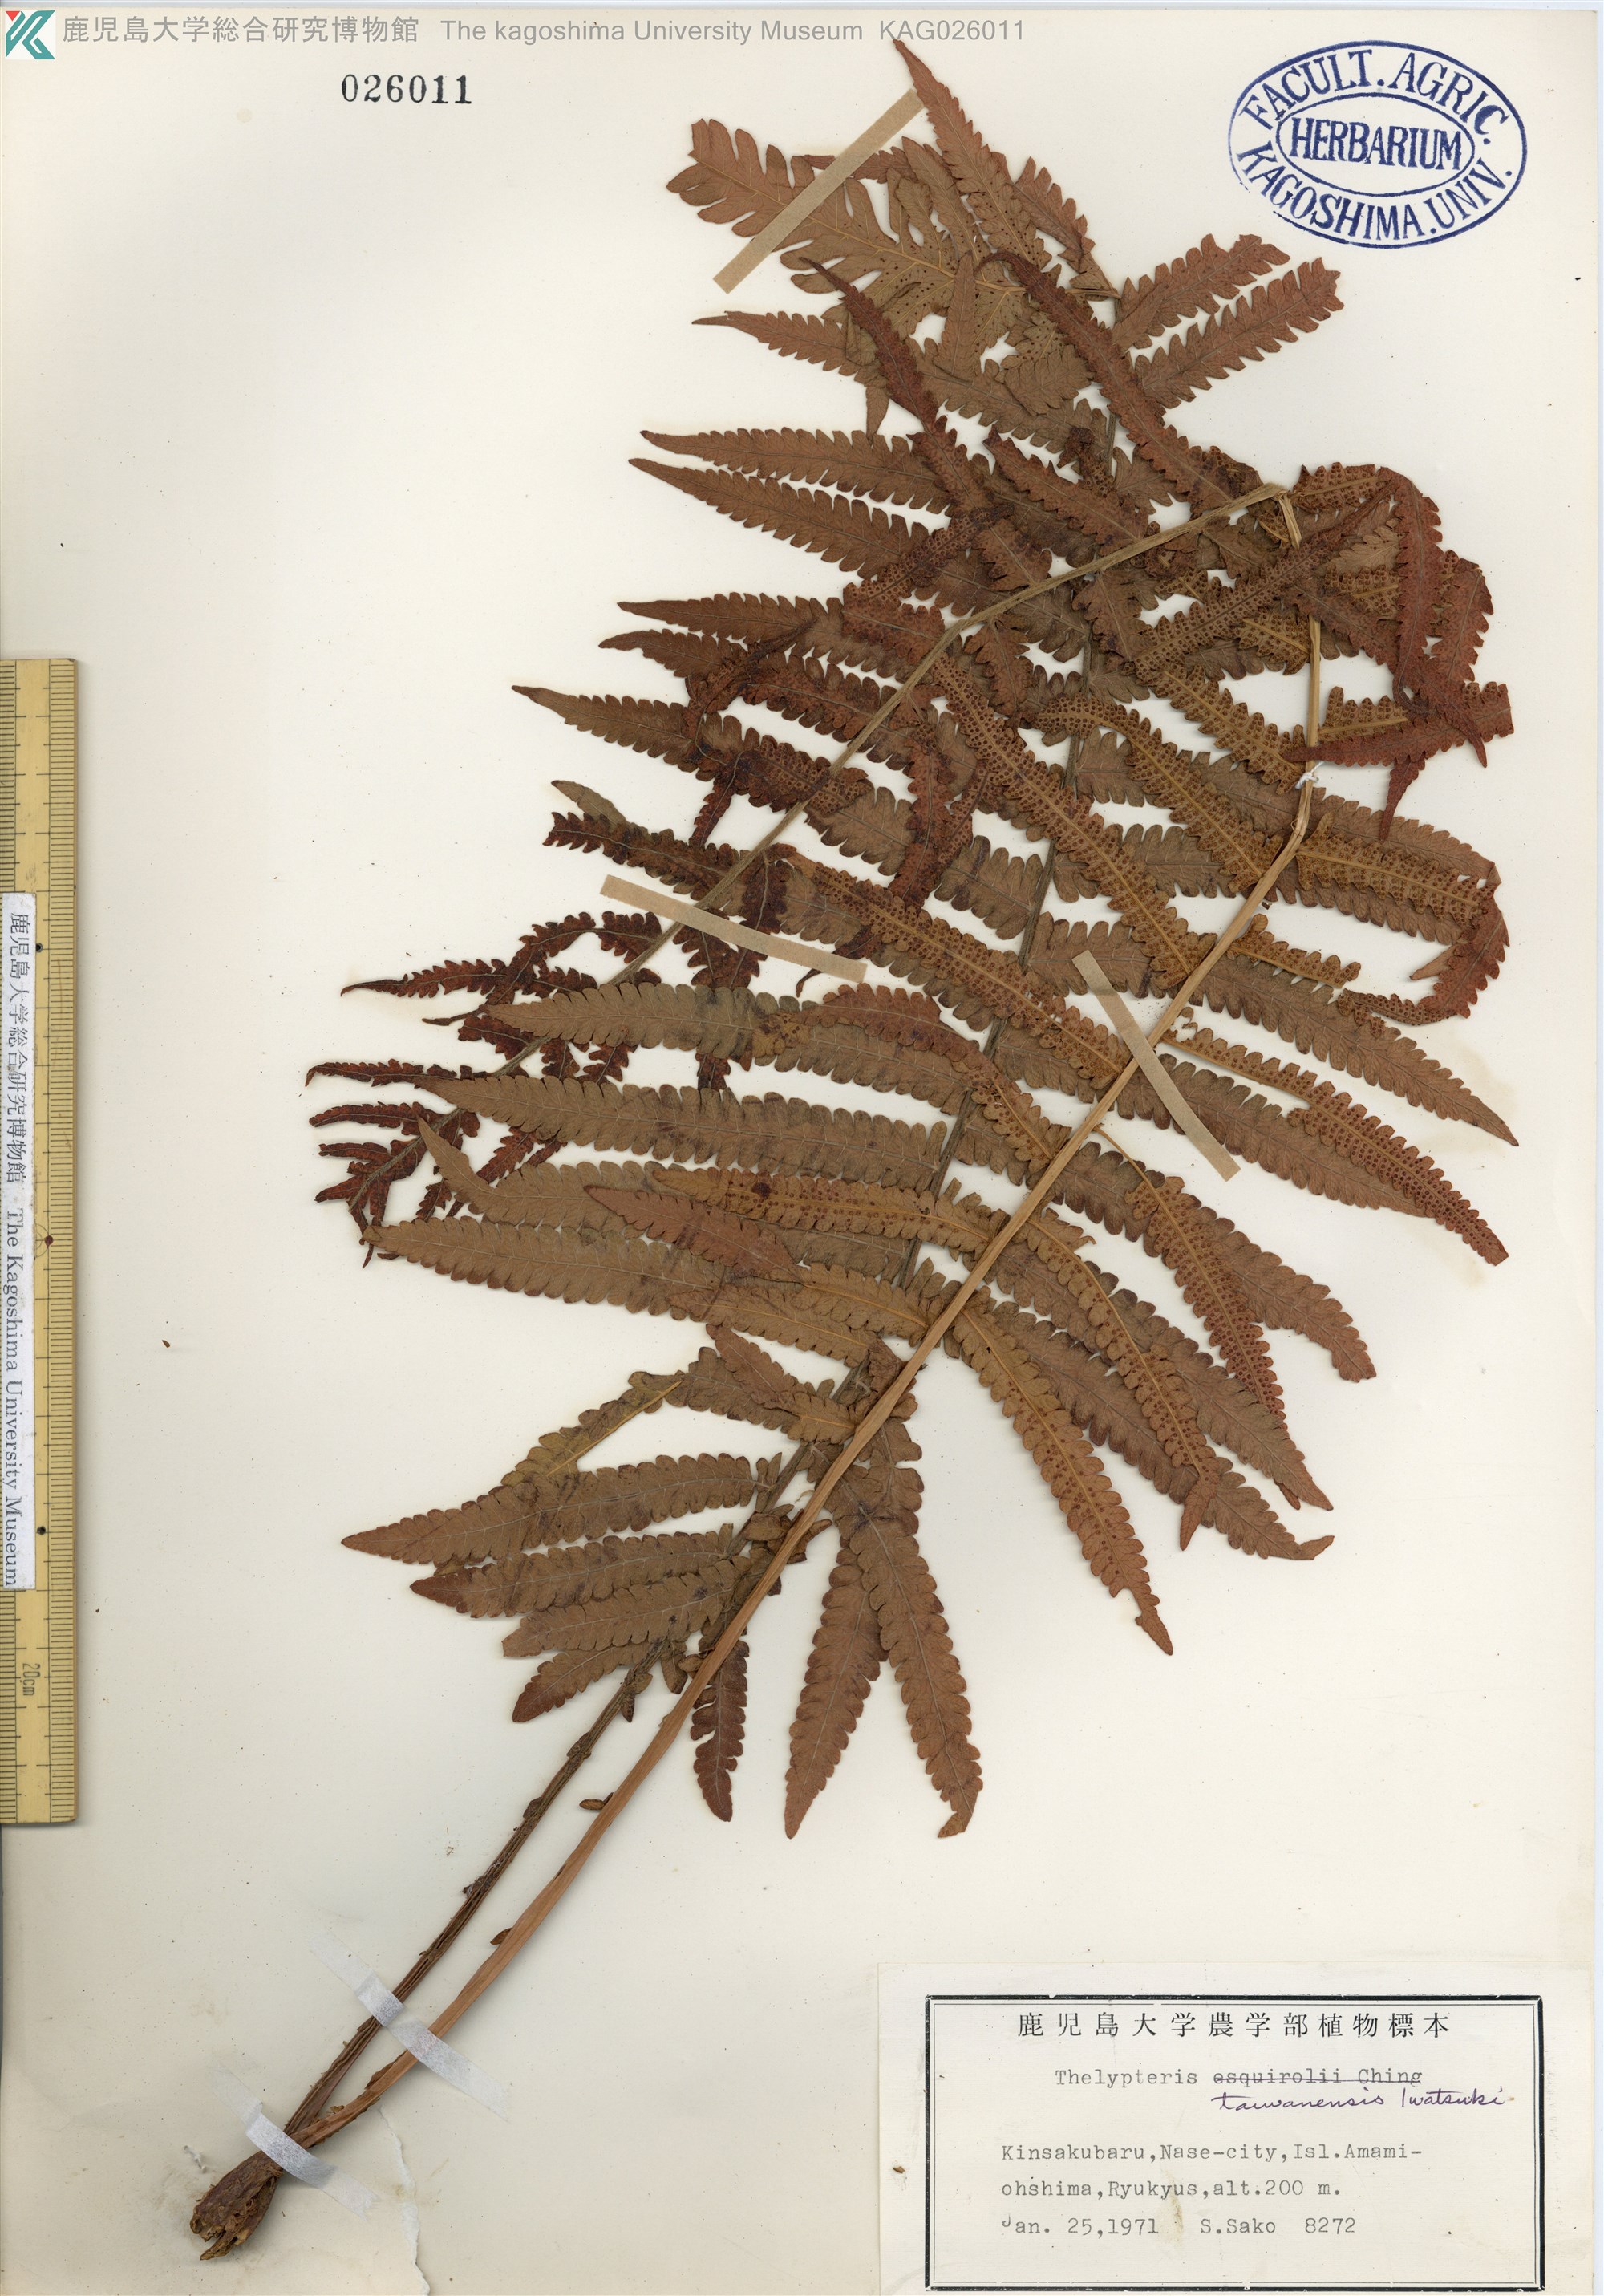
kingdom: Plantae
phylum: Tracheophyta
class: Polypodiopsida
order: Polypodiales
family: Thelypteridaceae
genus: Sphaerostephanos
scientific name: Sphaerostephanos taiwanensis
